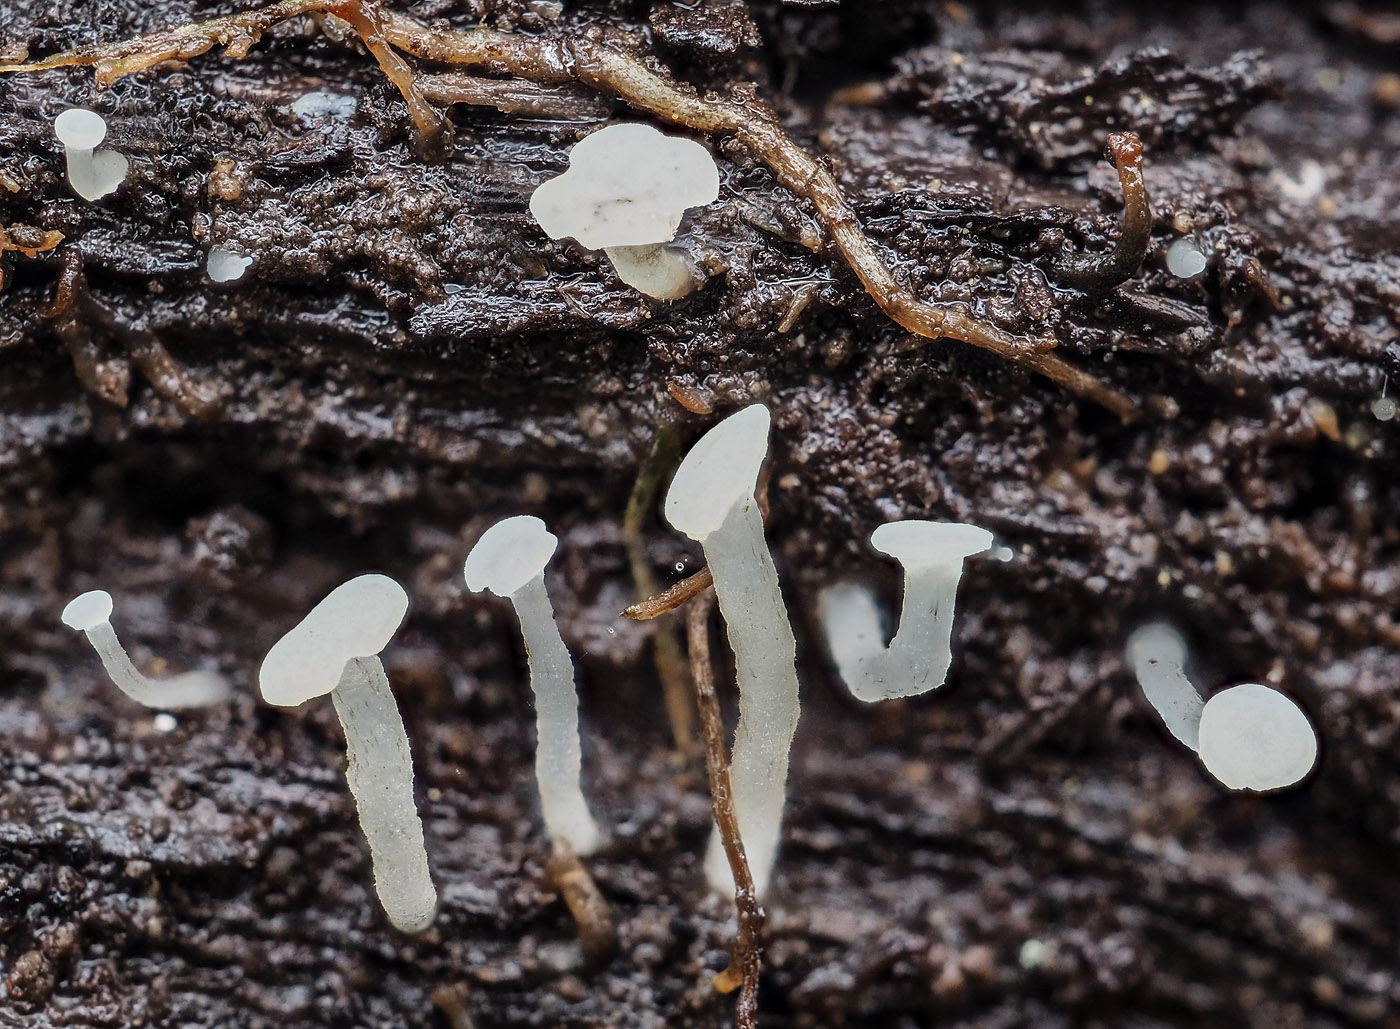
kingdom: Fungi
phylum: Ascomycota
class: Leotiomycetes
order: Helotiales
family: Tricladiaceae
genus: Cudoniella
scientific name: Cudoniella acicularis
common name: ege-dyndskive
